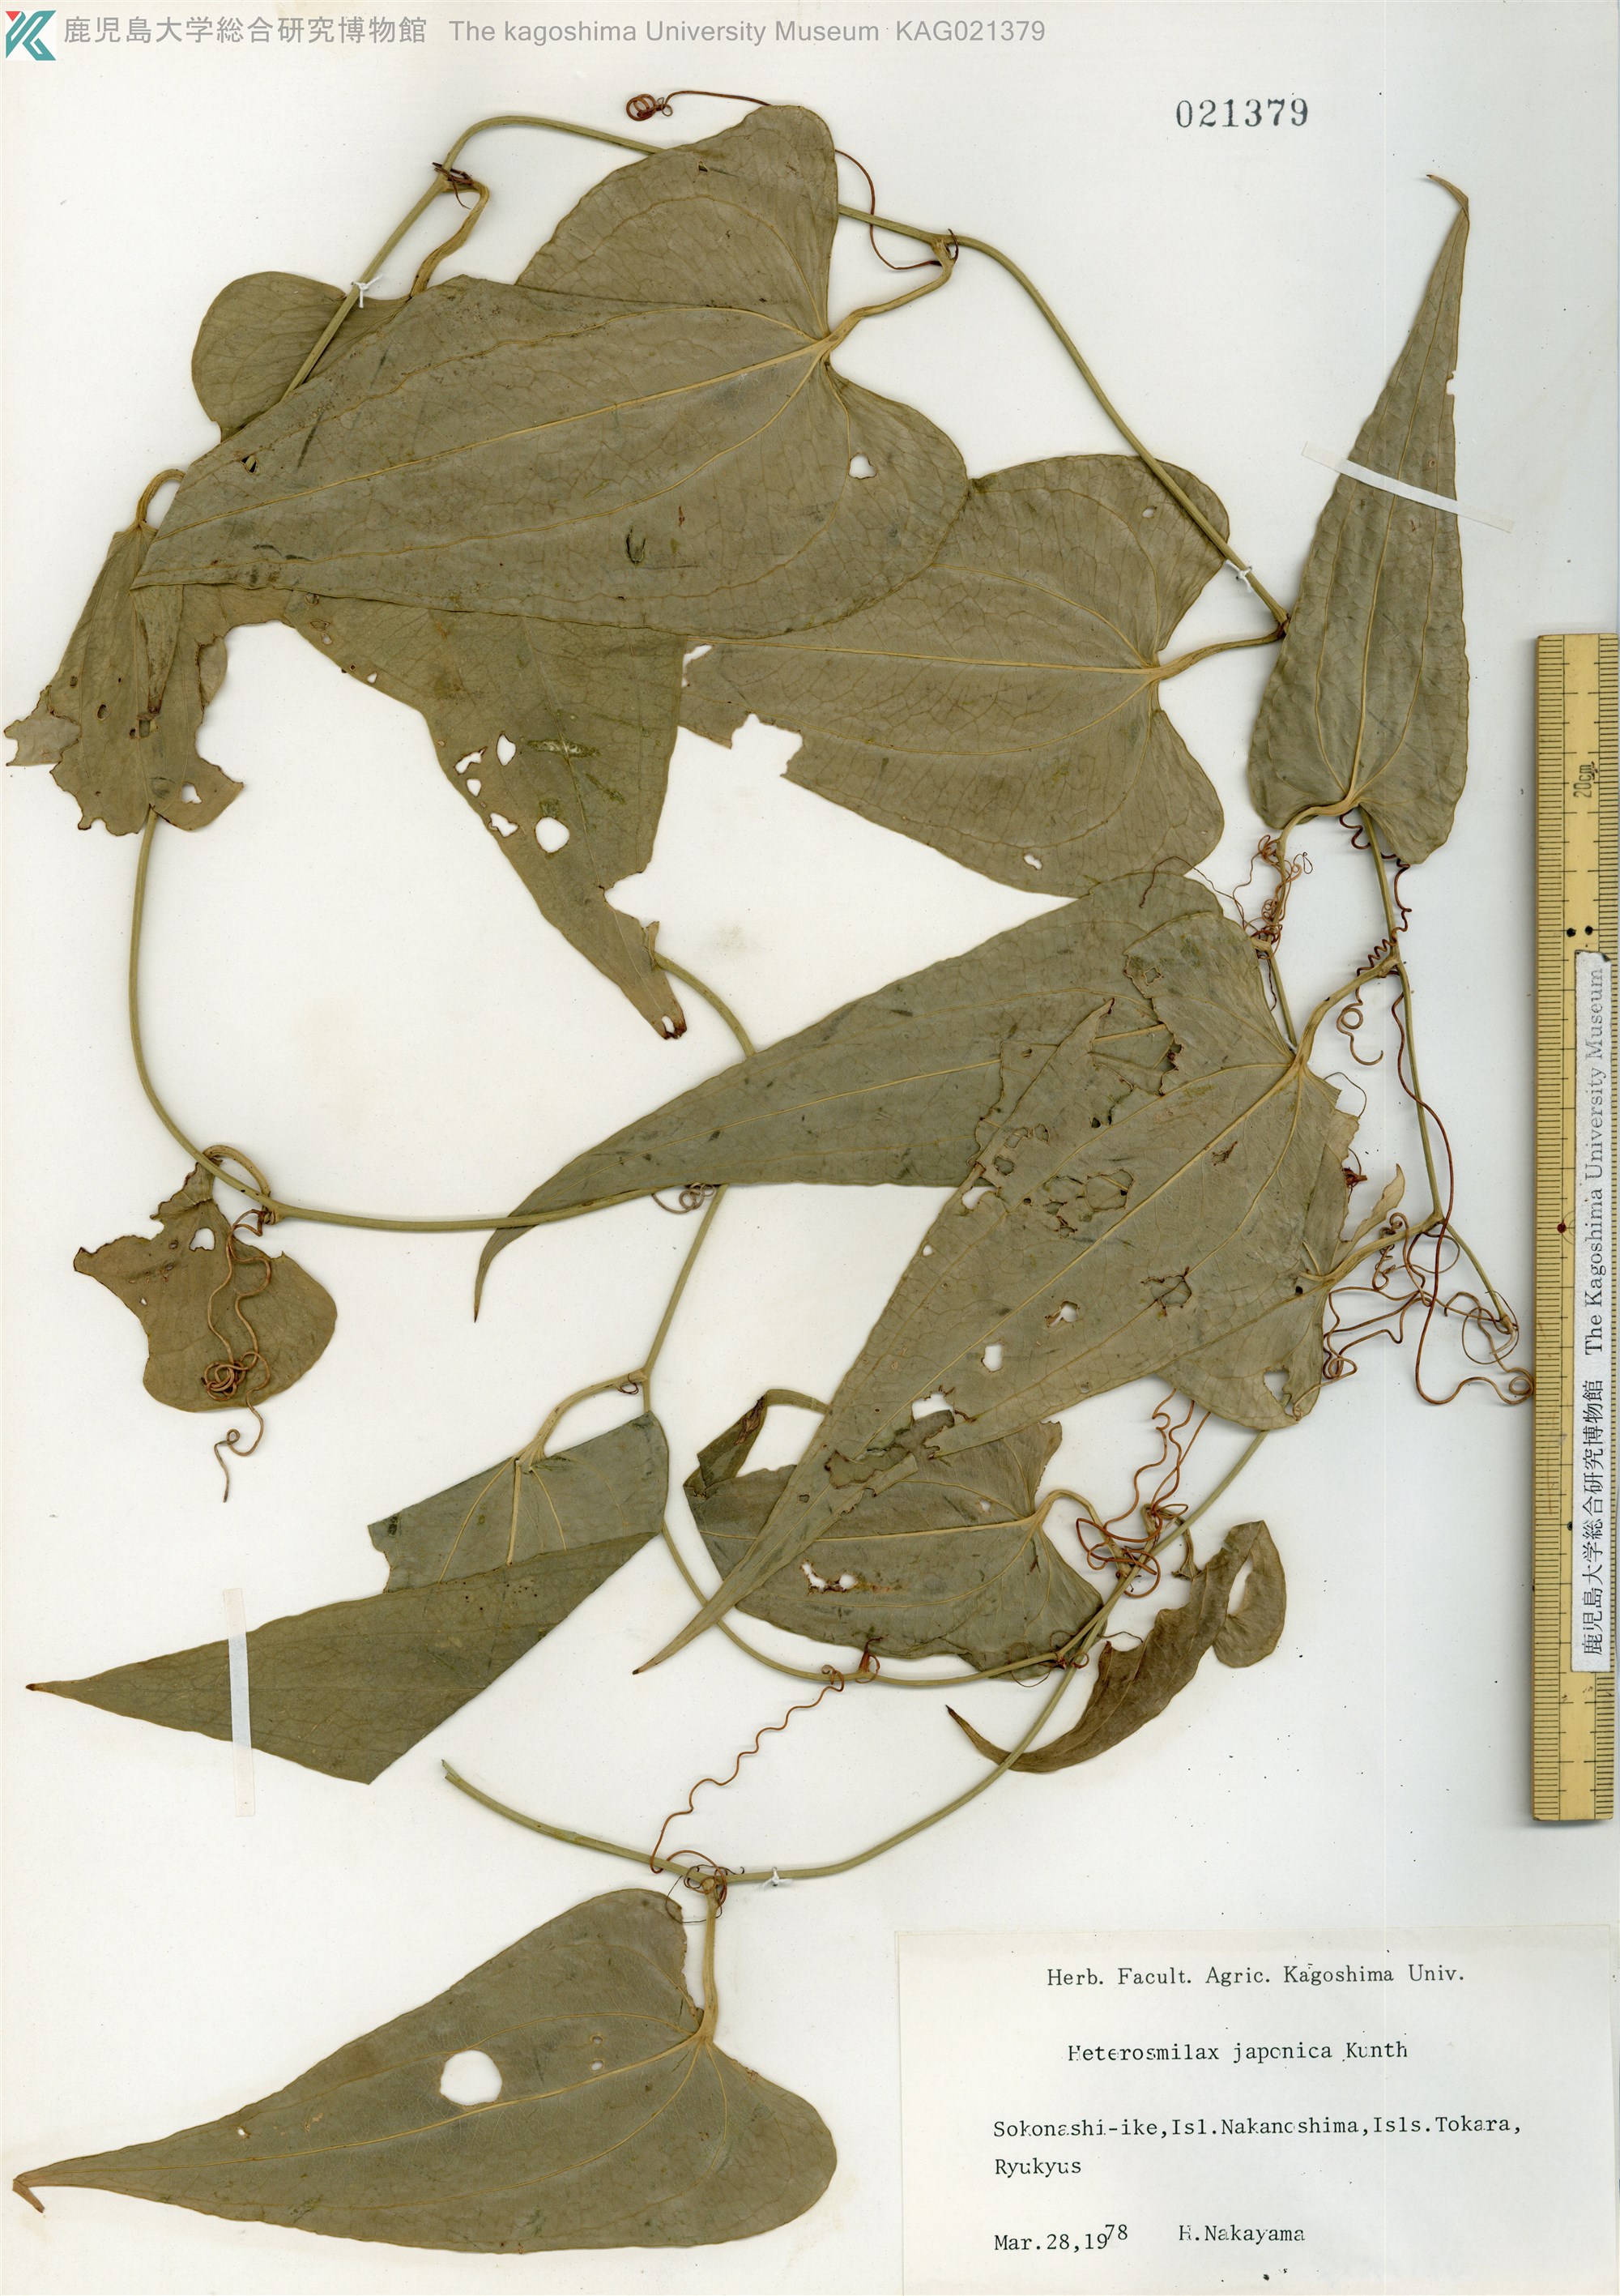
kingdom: Plantae
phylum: Tracheophyta
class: Liliopsida
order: Liliales
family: Smilacaceae
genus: Smilax
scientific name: Smilax insularis
